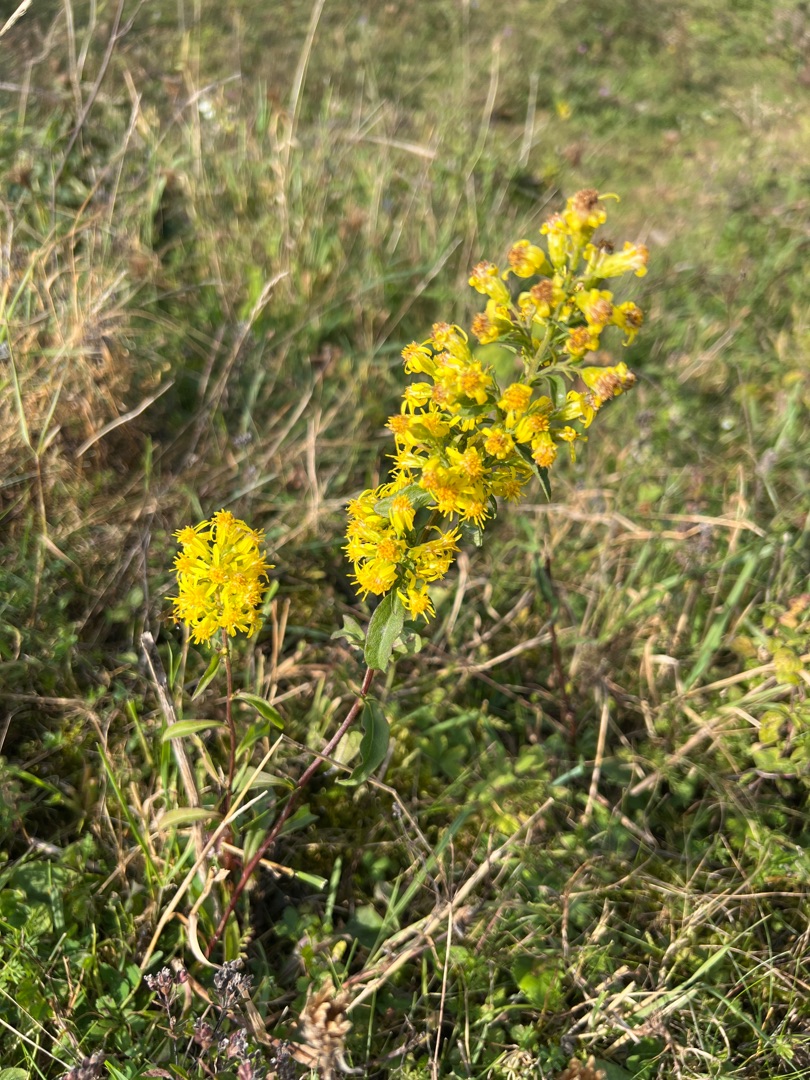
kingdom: Plantae
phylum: Tracheophyta
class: Magnoliopsida
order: Asterales
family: Asteraceae
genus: Solidago
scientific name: Solidago virgaurea
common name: Almindelig gyldenris
